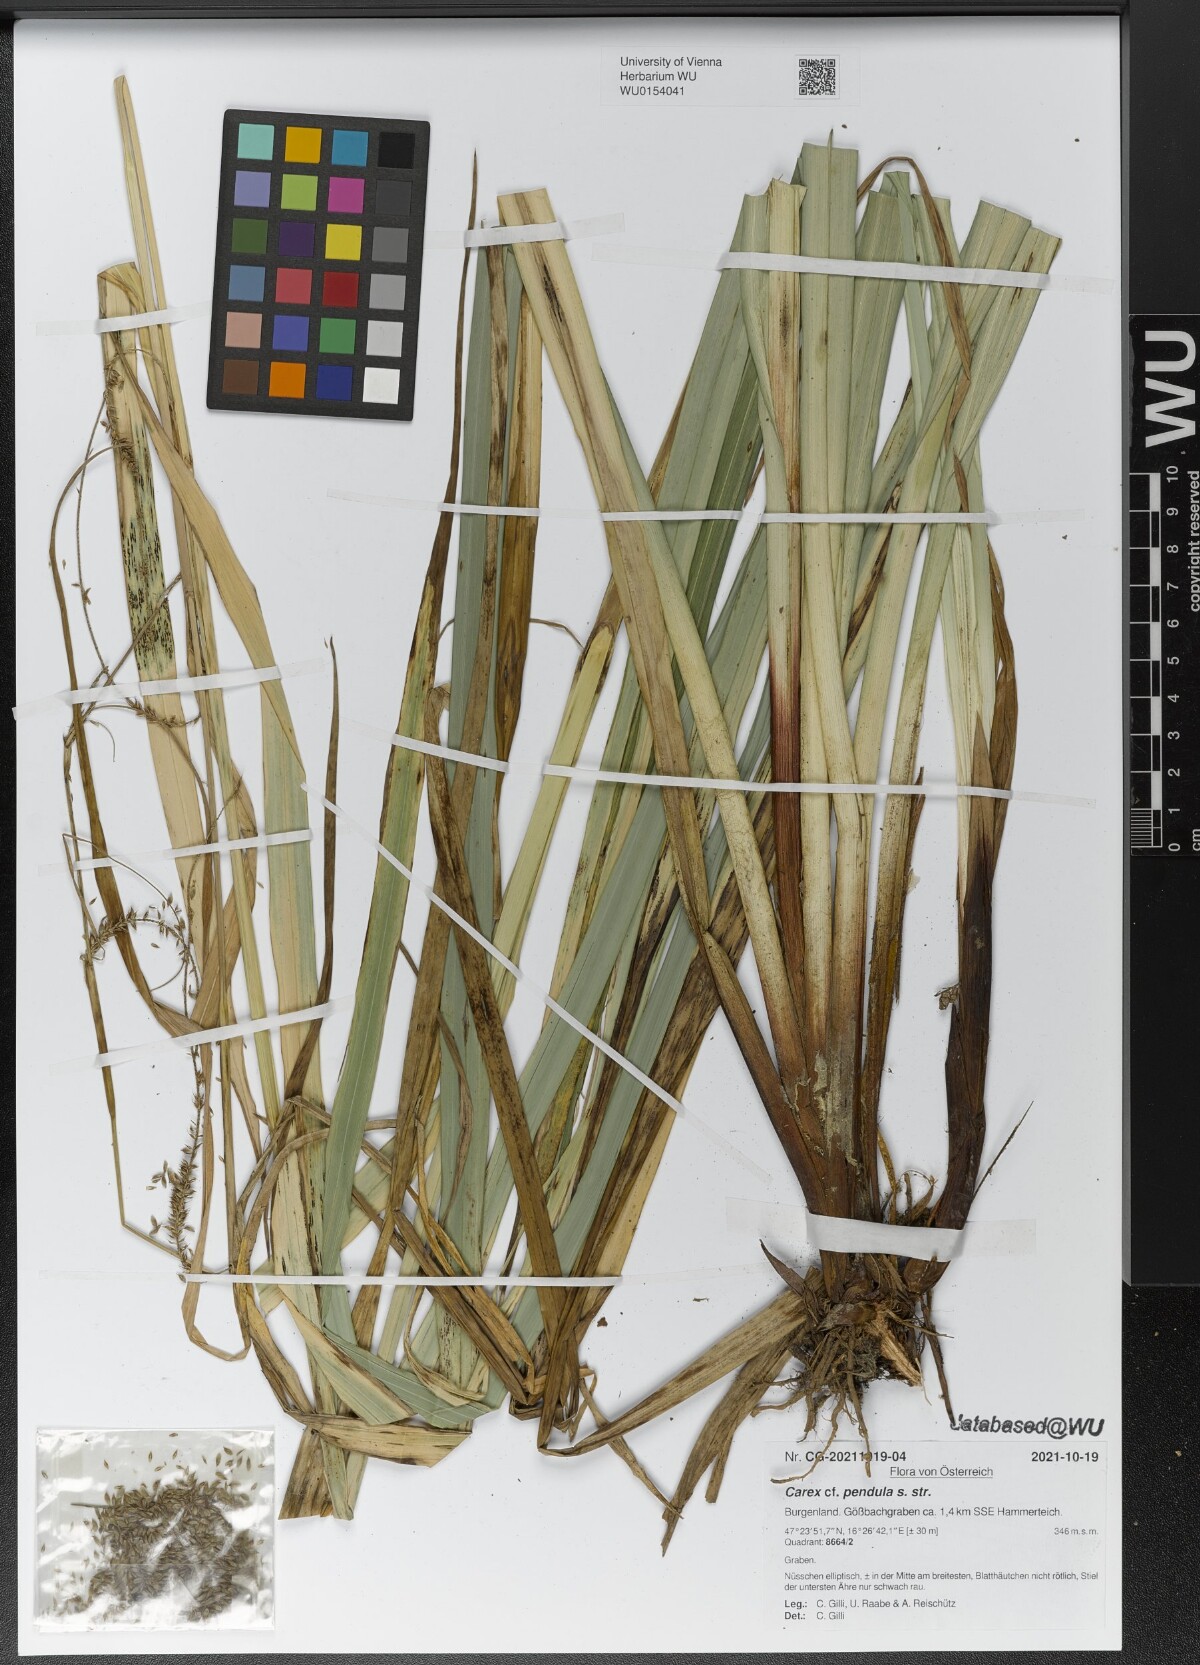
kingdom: Plantae
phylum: Tracheophyta
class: Liliopsida
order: Poales
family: Cyperaceae
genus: Carex
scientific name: Carex pendula
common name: Pendulous sedge
